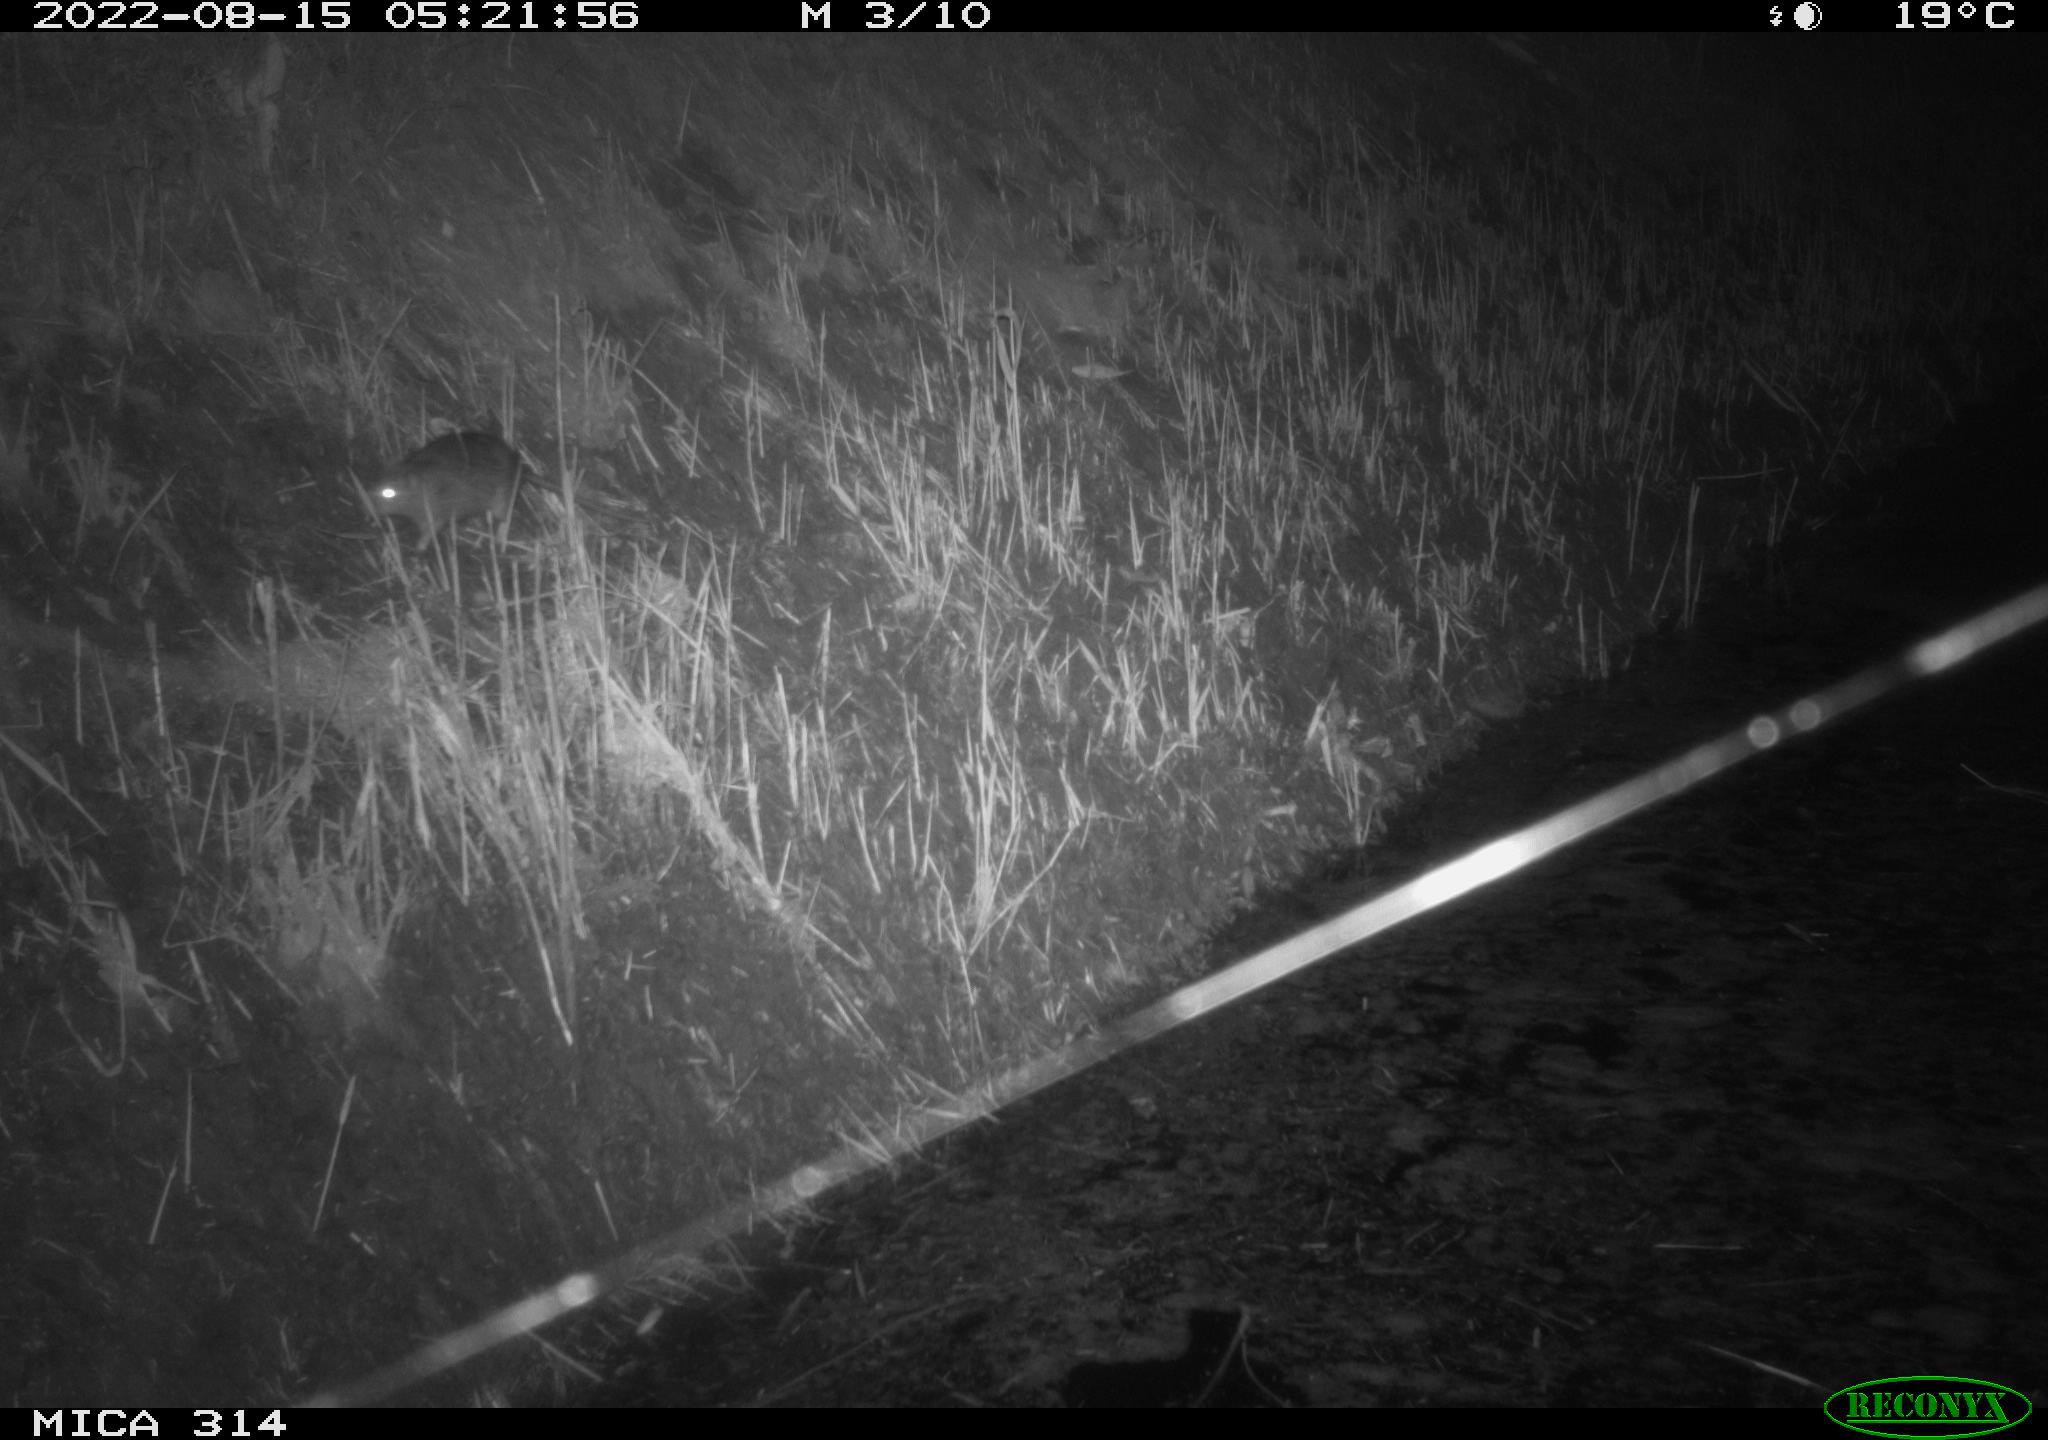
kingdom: Animalia
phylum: Chordata
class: Mammalia
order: Rodentia
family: Muridae
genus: Rattus
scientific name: Rattus norvegicus
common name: Brown rat
